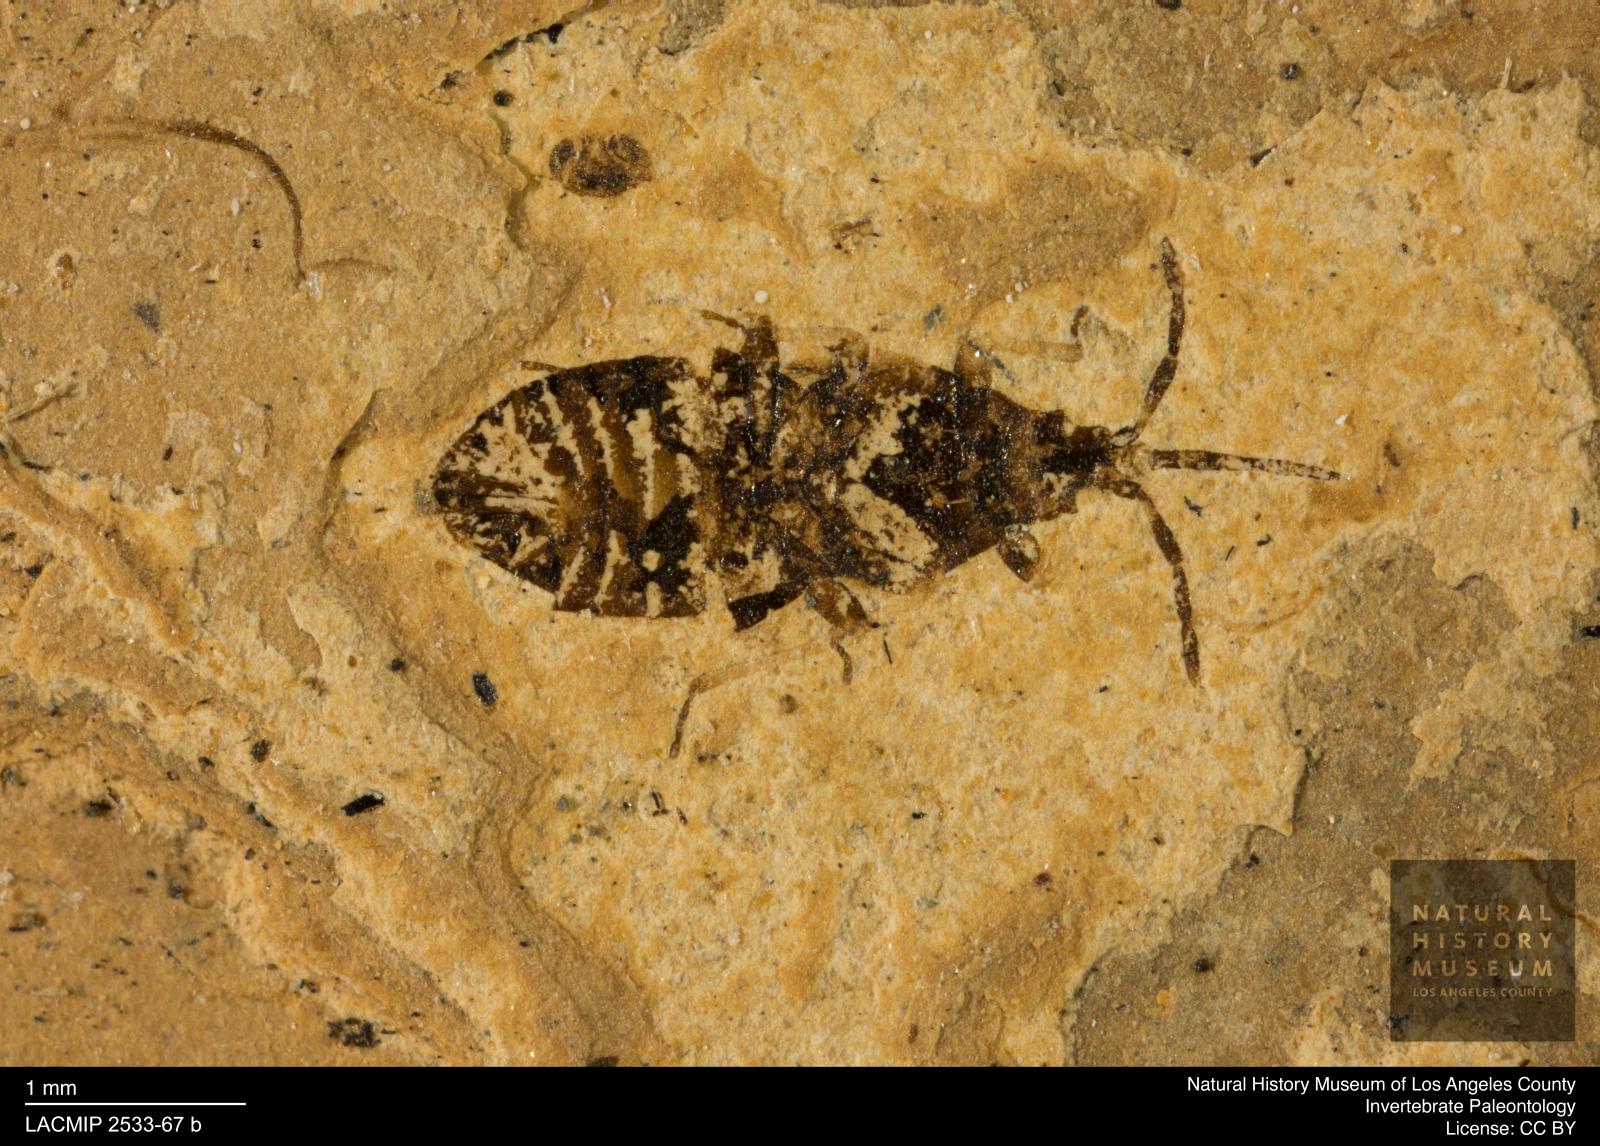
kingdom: Animalia
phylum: Arthropoda
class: Insecta
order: Hemiptera
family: Anthocoridae
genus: Temnostethus
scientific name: Temnostethus blandus
